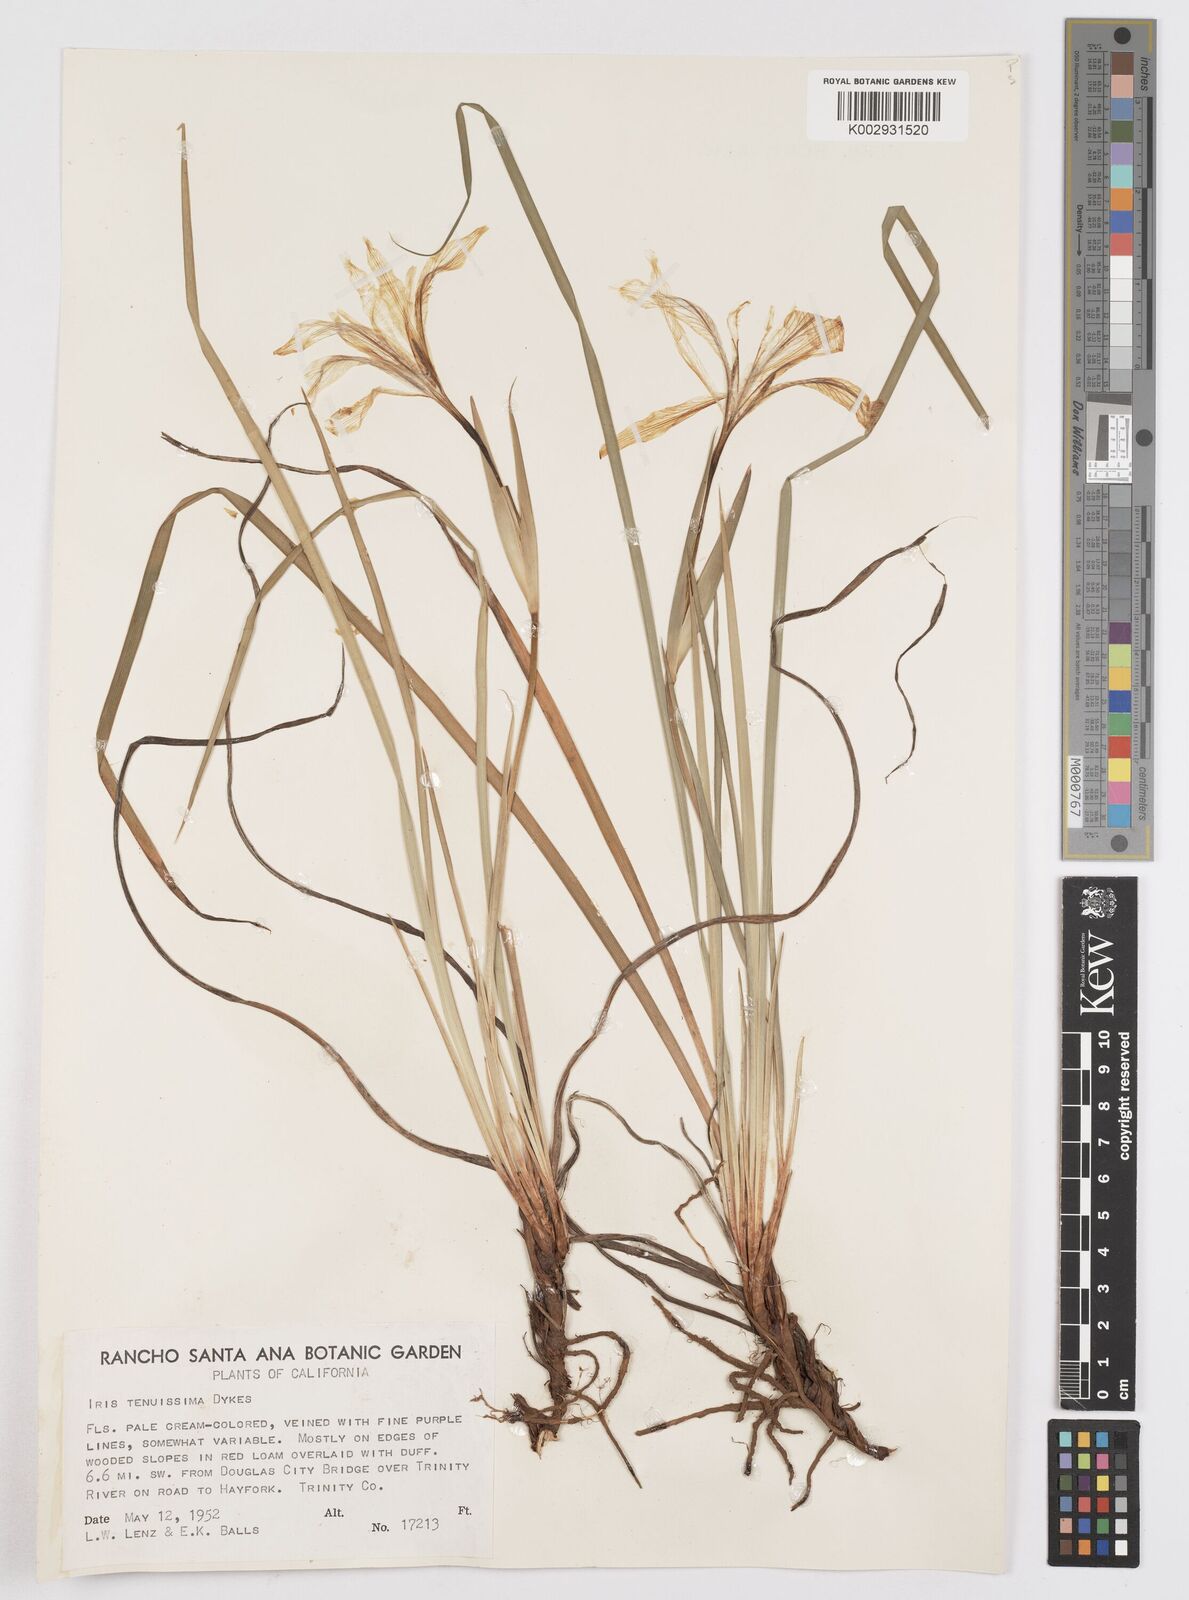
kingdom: Plantae
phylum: Tracheophyta
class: Liliopsida
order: Asparagales
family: Iridaceae
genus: Iris
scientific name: Iris tenuissima
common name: Long-tube iris
